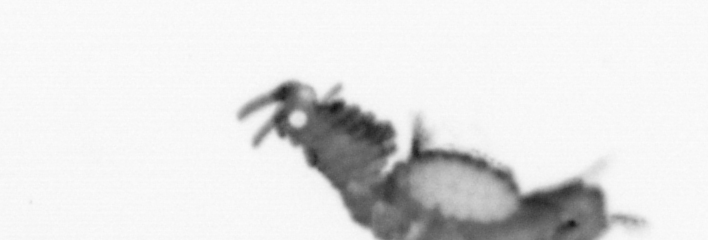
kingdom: Animalia
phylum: Annelida
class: Polychaeta
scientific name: Polychaeta
